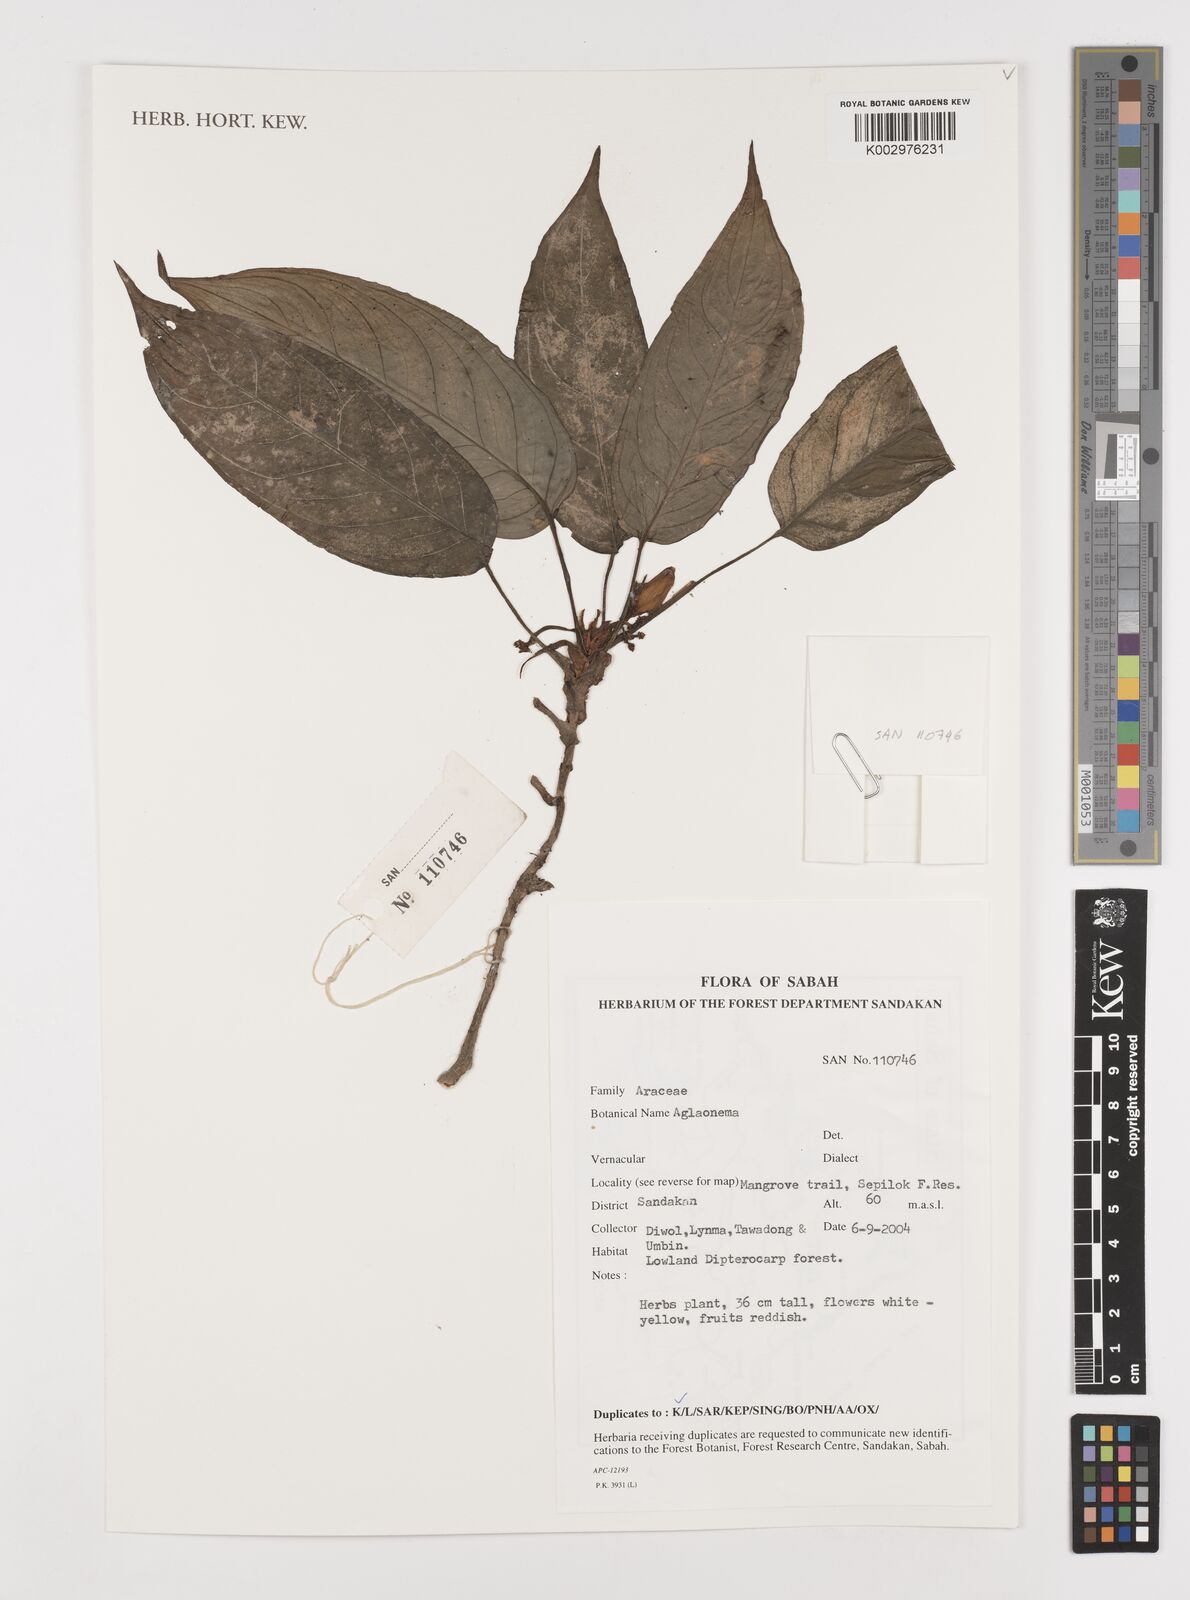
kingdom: Plantae
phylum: Tracheophyta
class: Liliopsida
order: Alismatales
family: Araceae
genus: Aglaonema
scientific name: Aglaonema
